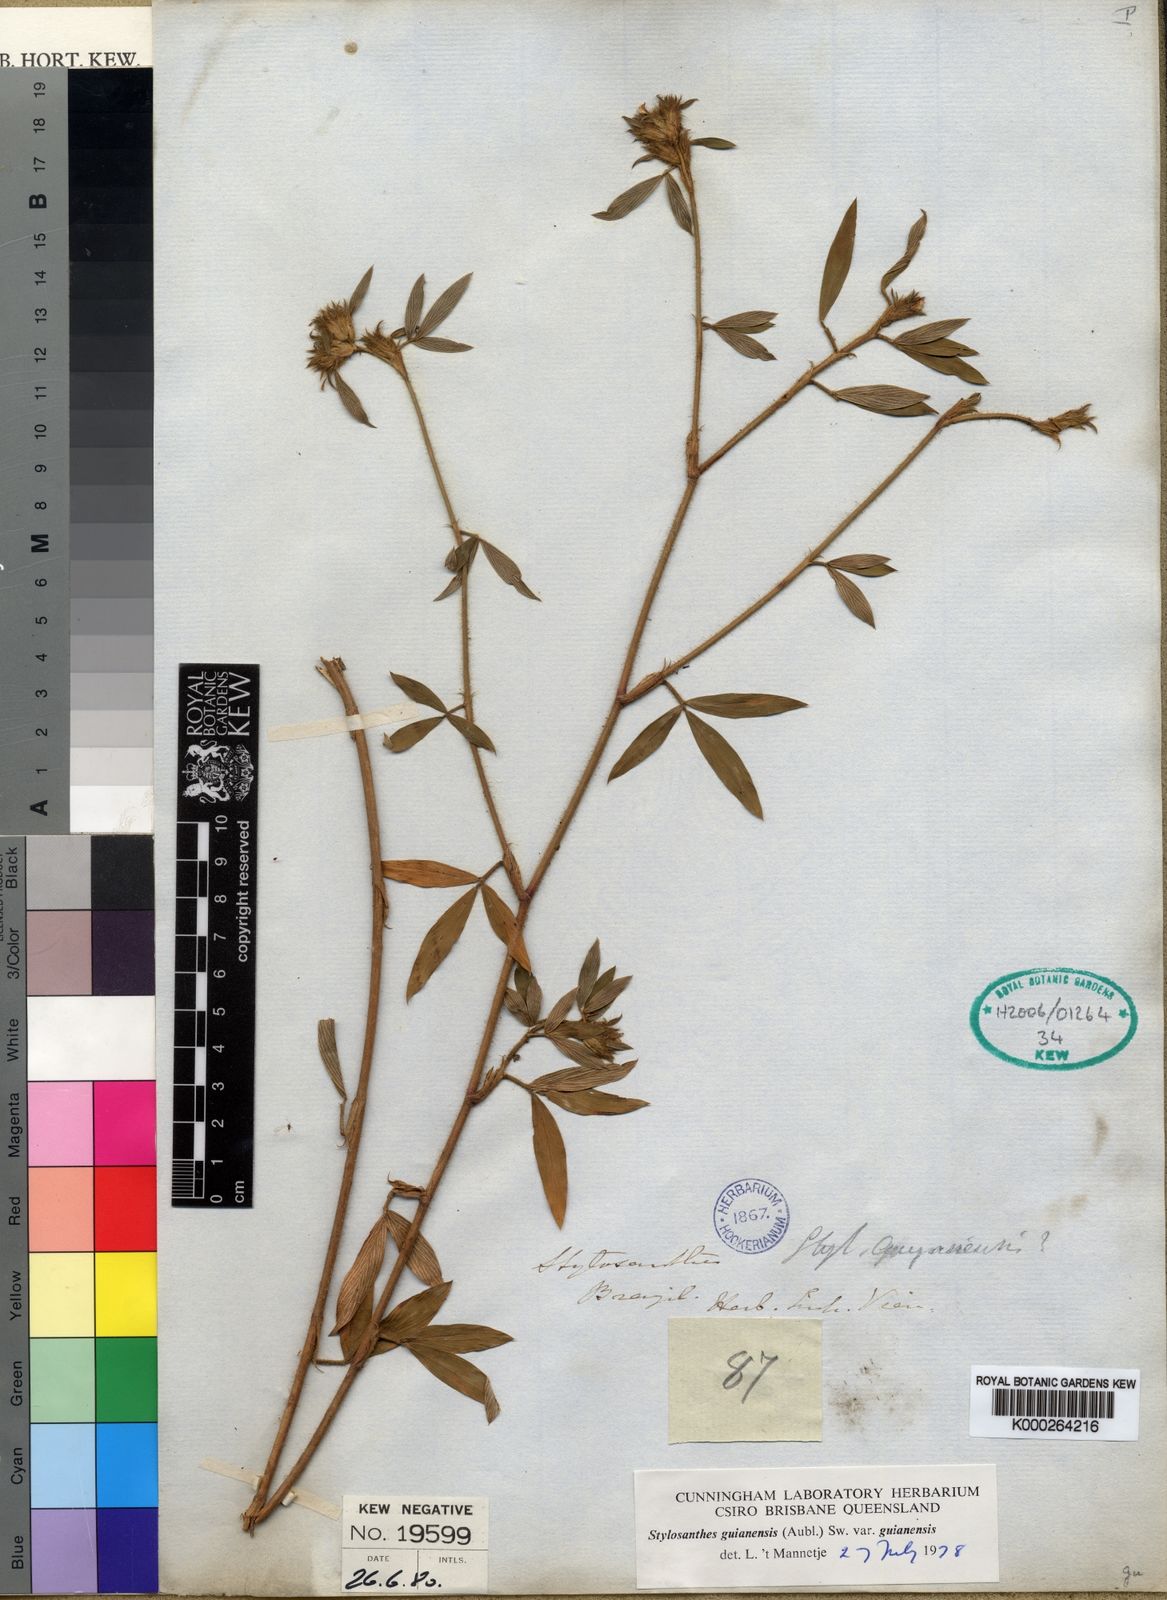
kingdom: Plantae
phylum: Tracheophyta
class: Magnoliopsida
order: Fabales
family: Fabaceae
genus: Stylosanthes
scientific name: Stylosanthes guianensis
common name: Pencil flower
